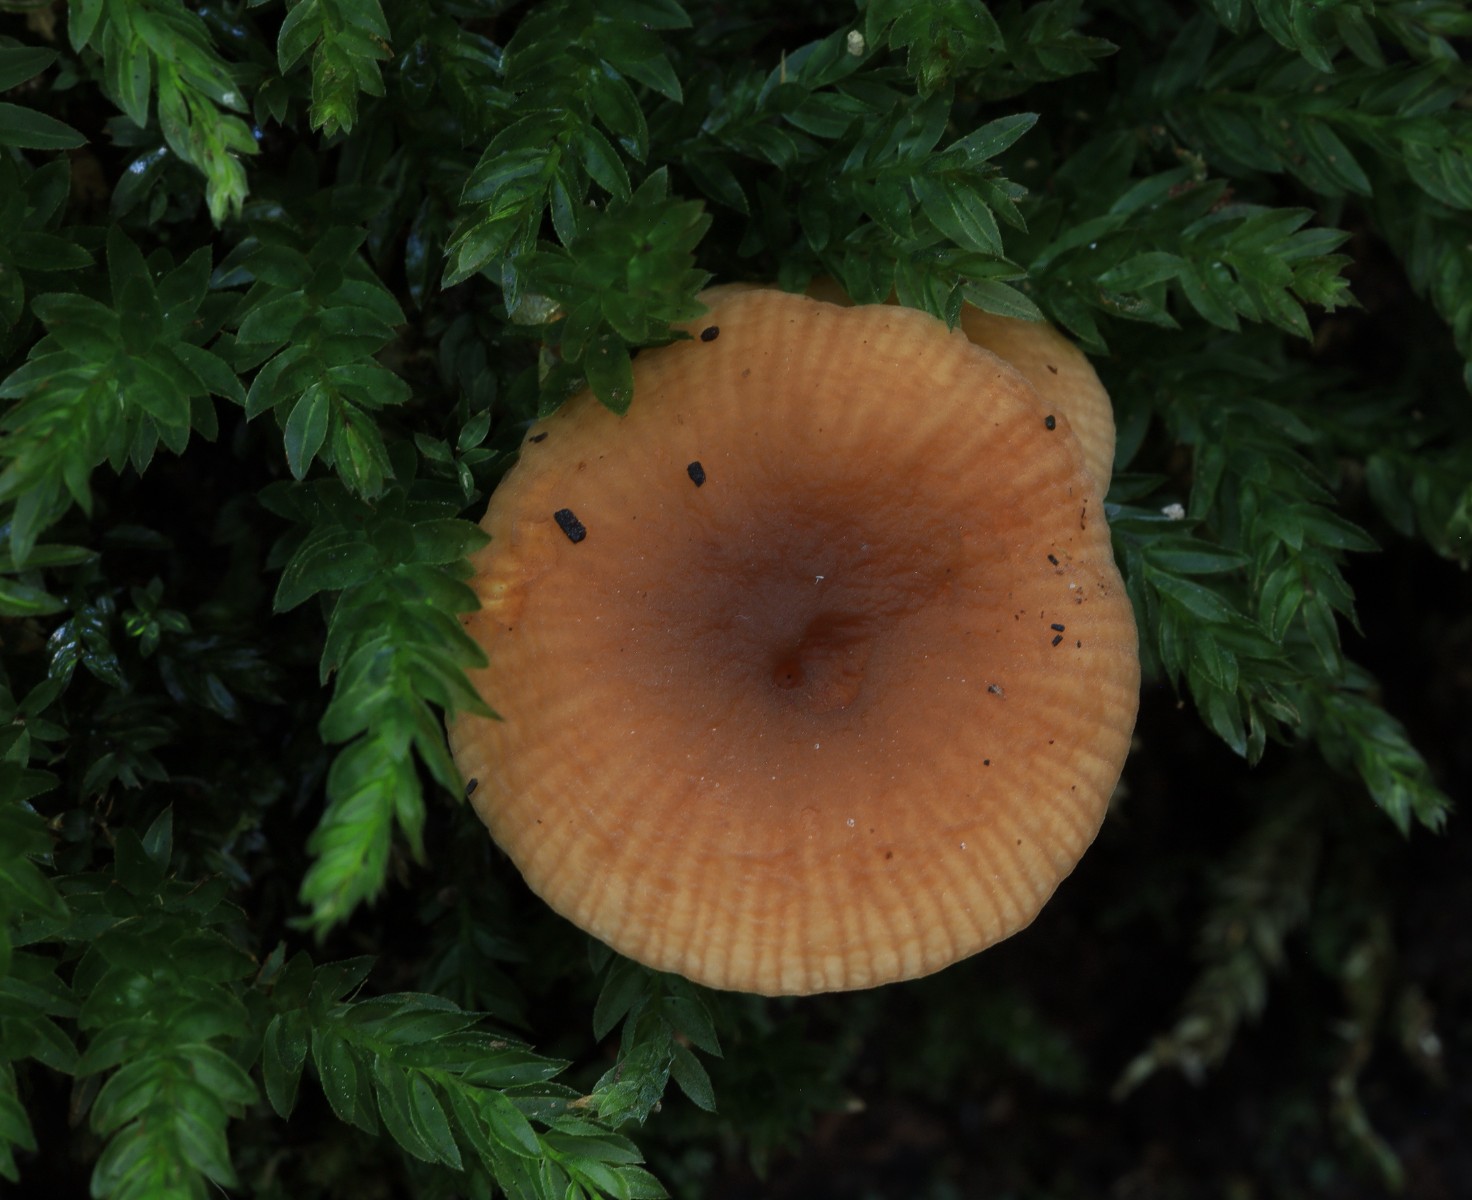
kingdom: Fungi
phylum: Basidiomycota
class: Agaricomycetes
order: Russulales
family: Russulaceae
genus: Lactarius
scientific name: Lactarius
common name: mælkehat
